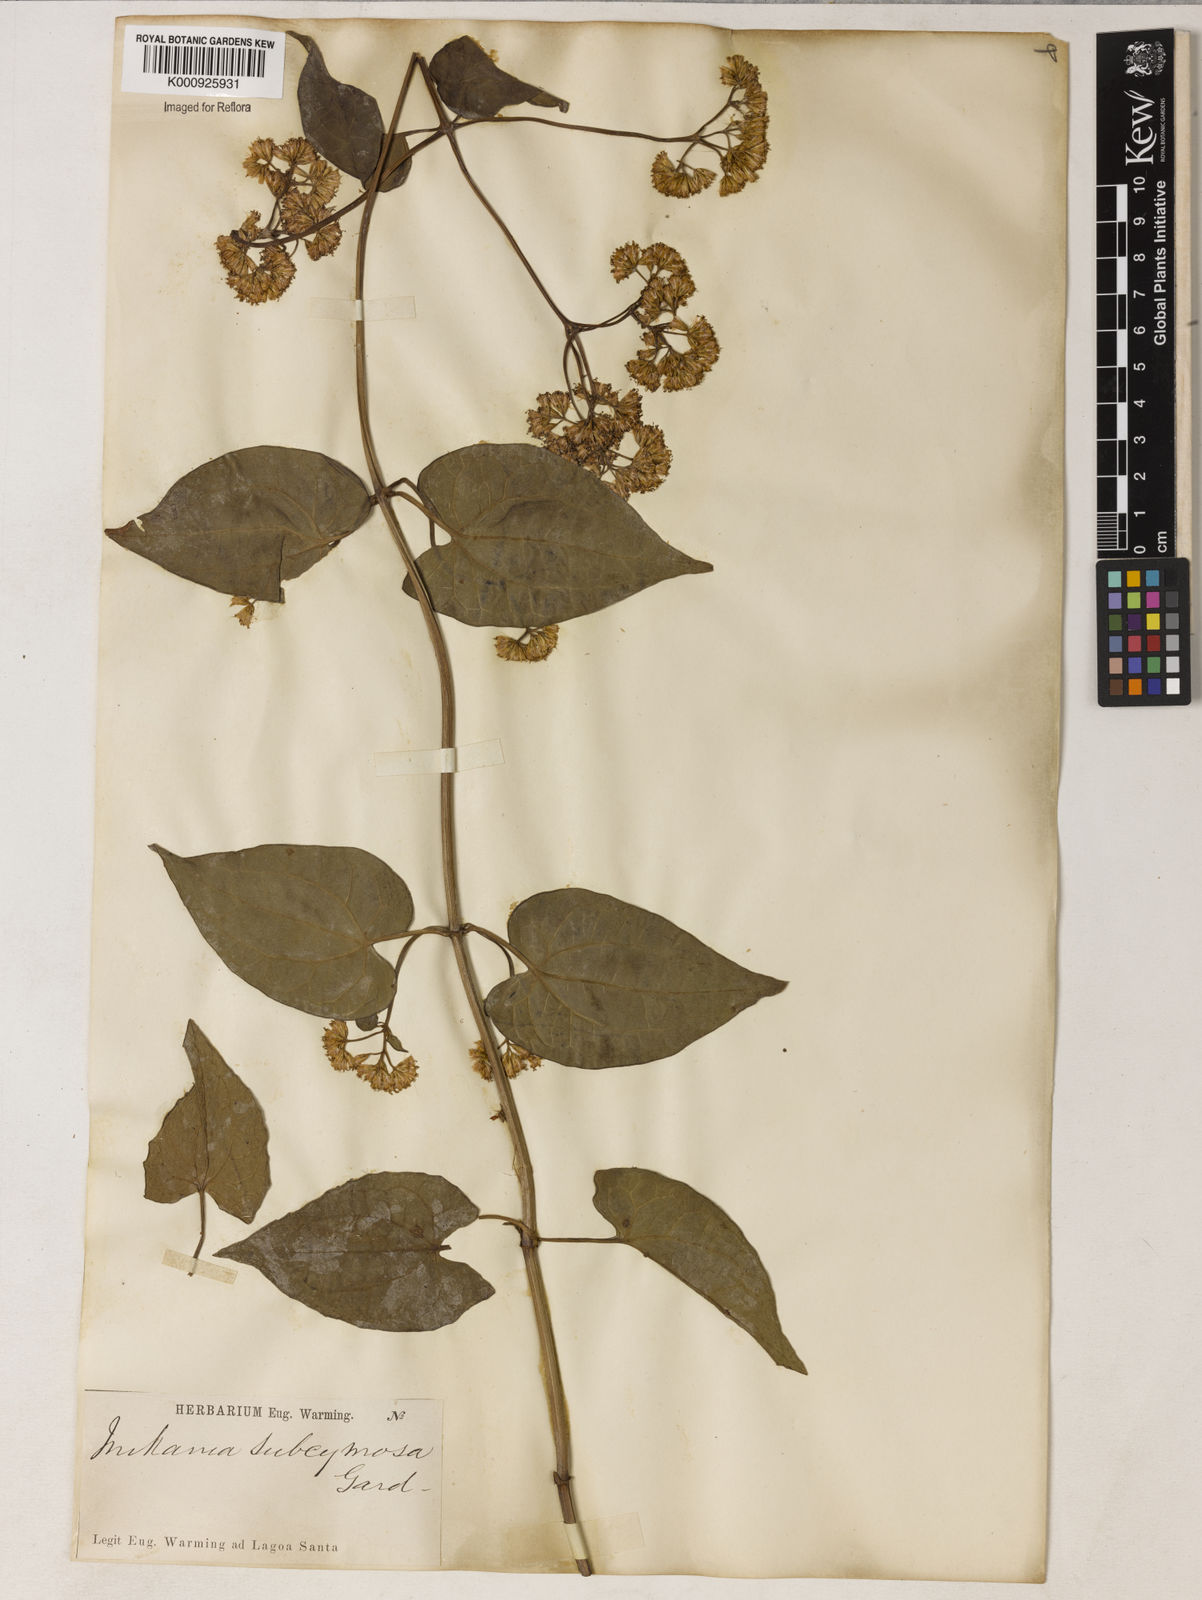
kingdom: Plantae
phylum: Tracheophyta
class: Magnoliopsida
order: Asterales
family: Asteraceae
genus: Mikania
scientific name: Mikania micrantha
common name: Mile-a-minute
